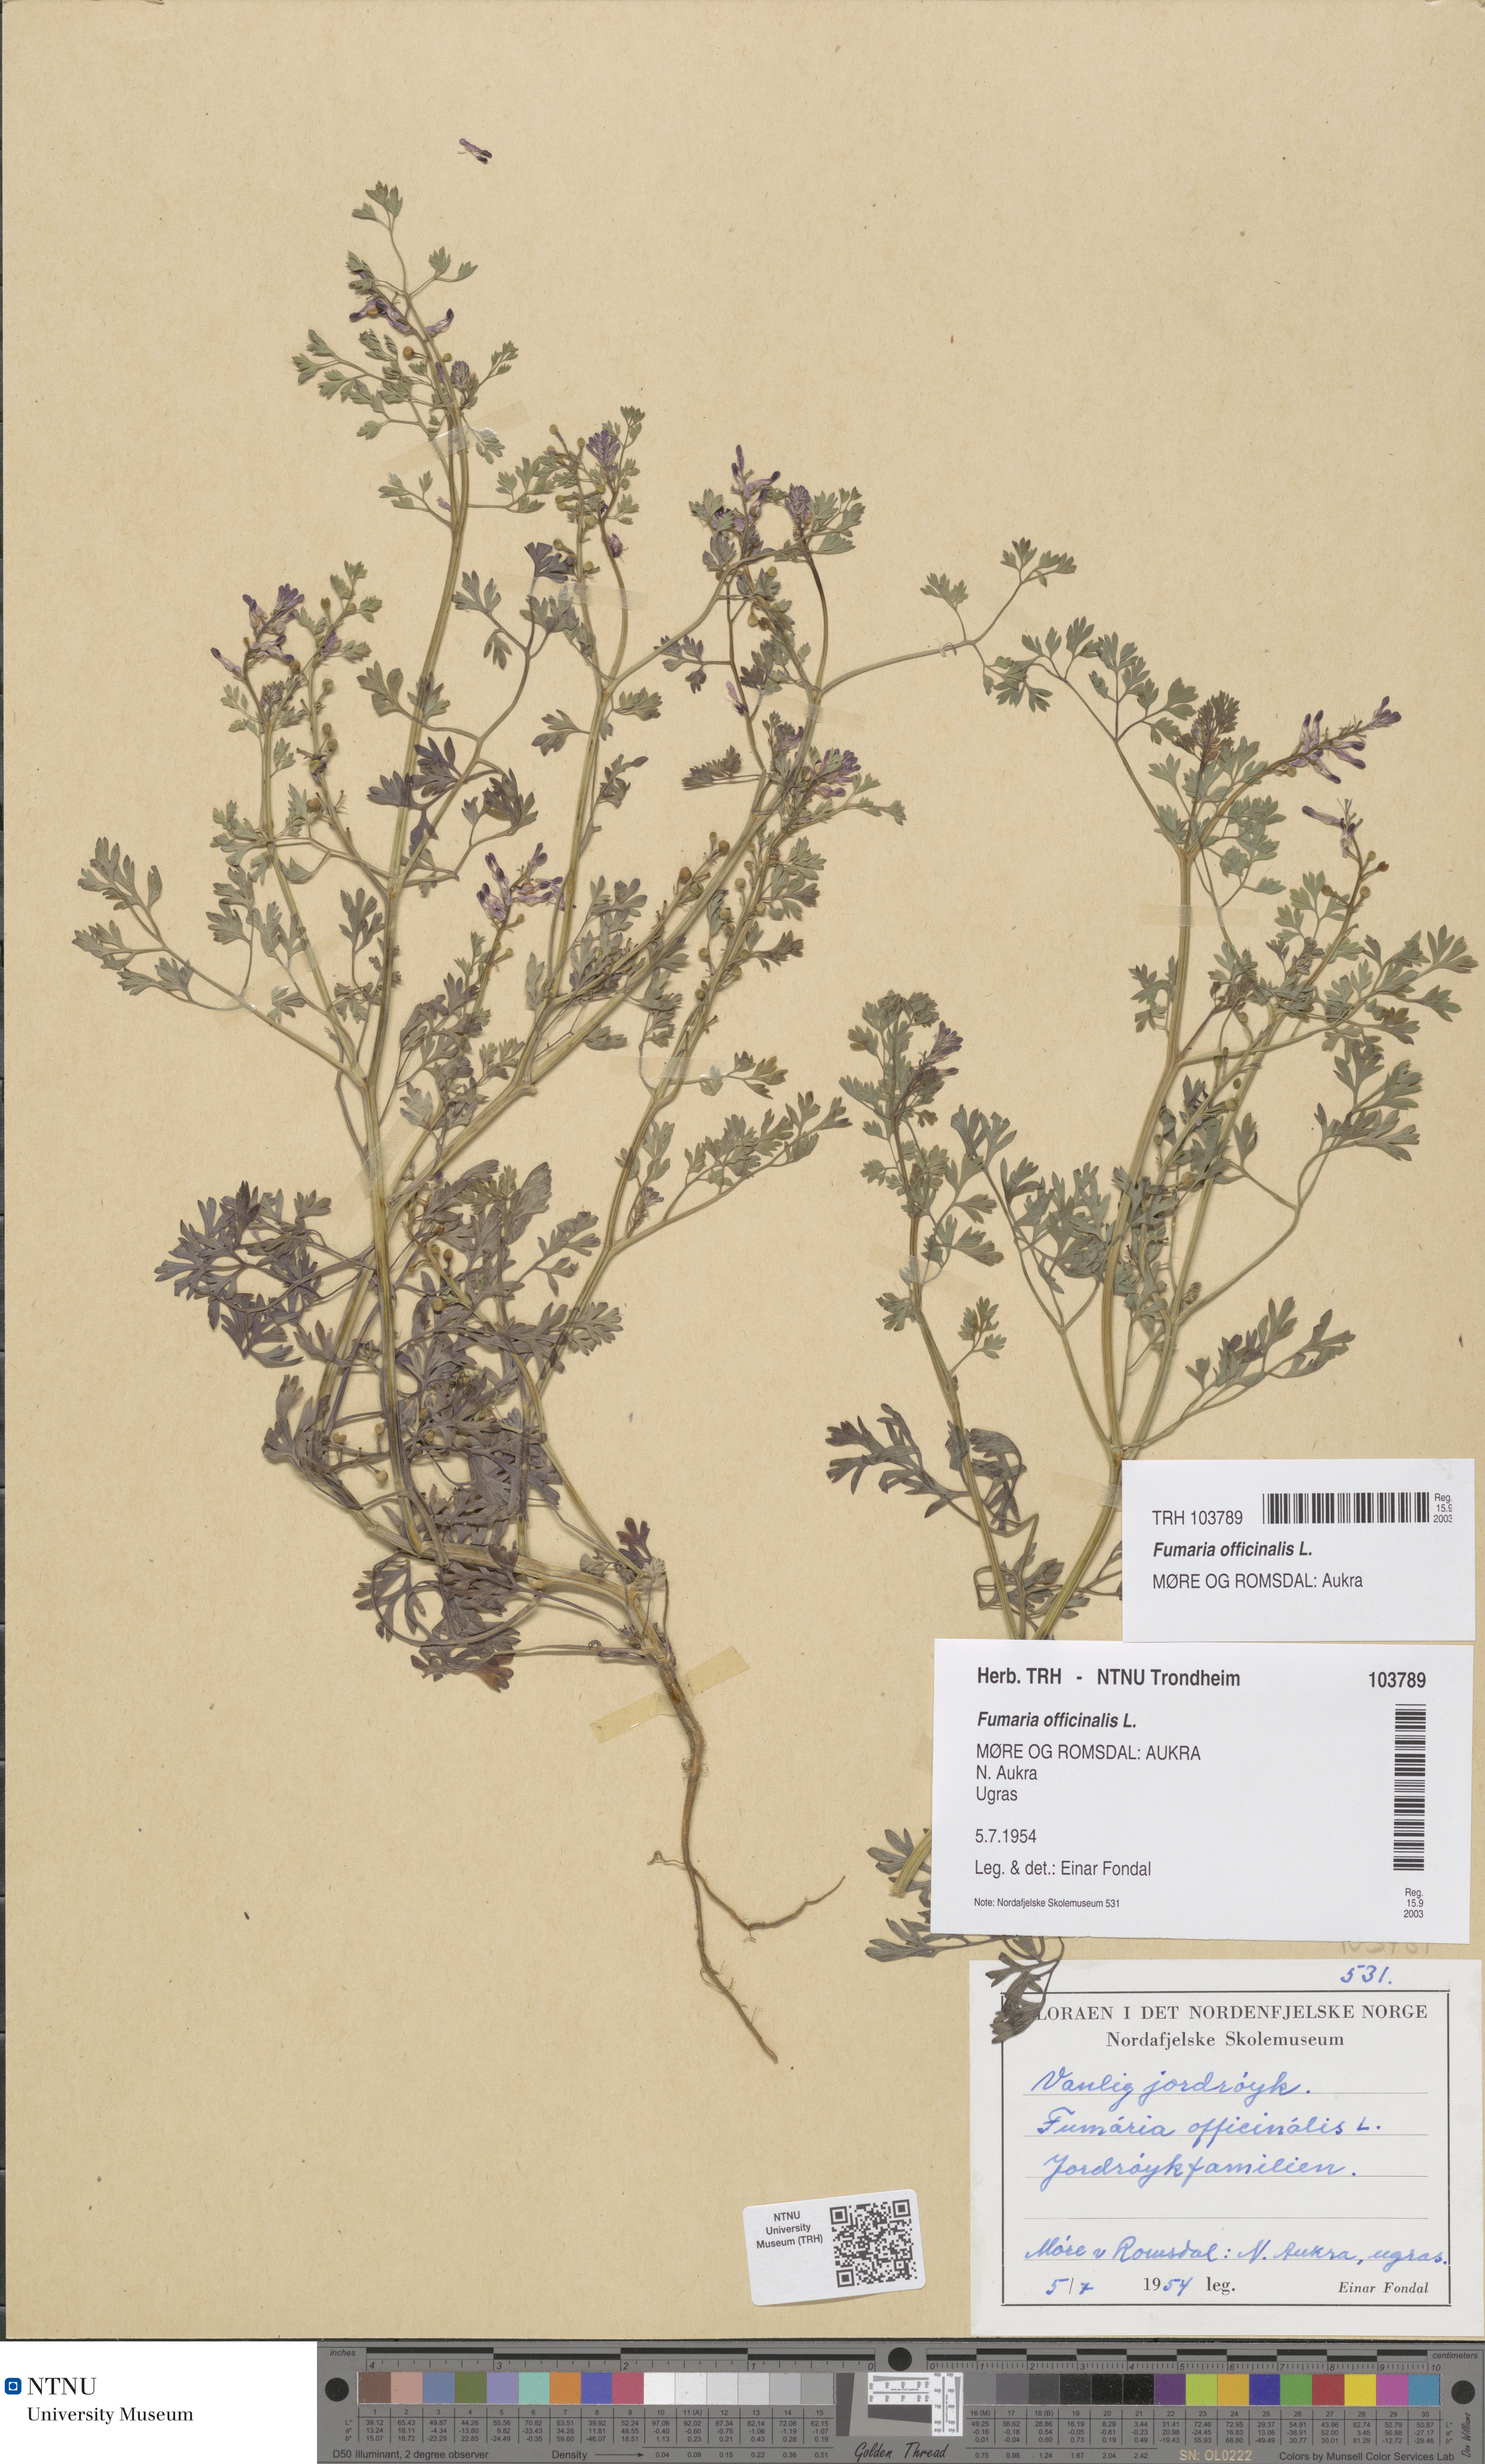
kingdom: Plantae
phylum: Tracheophyta
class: Magnoliopsida
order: Ranunculales
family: Papaveraceae
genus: Fumaria
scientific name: Fumaria officinalis
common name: Common fumitory
